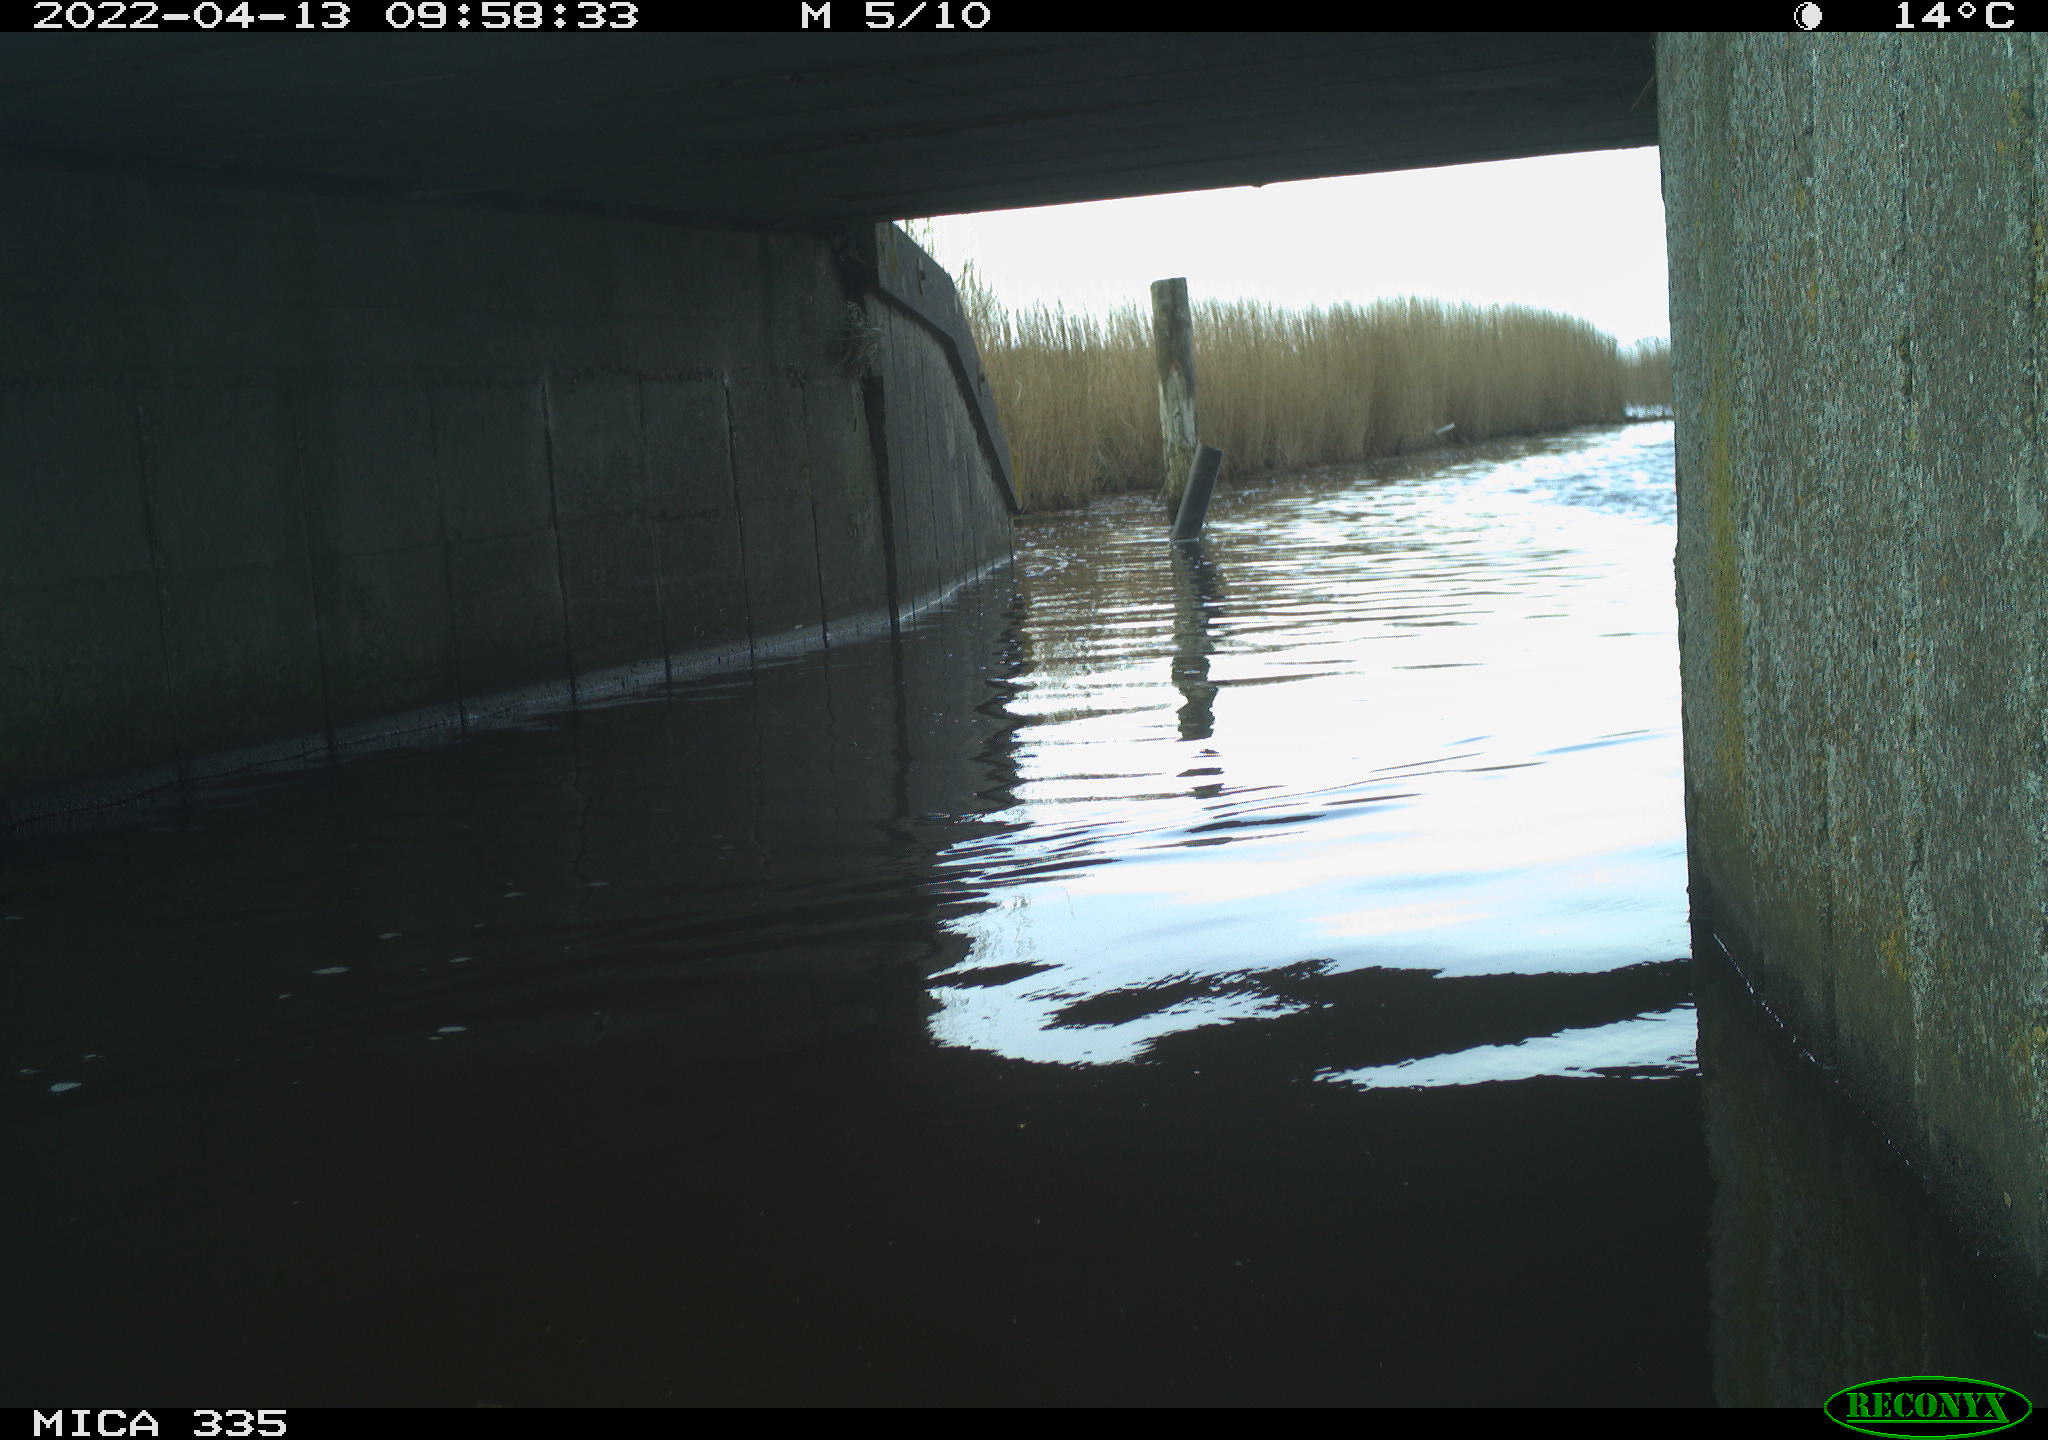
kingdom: Animalia
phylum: Chordata
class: Aves
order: Anseriformes
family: Anatidae
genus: Anas
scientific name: Anas platyrhynchos
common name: Mallard
